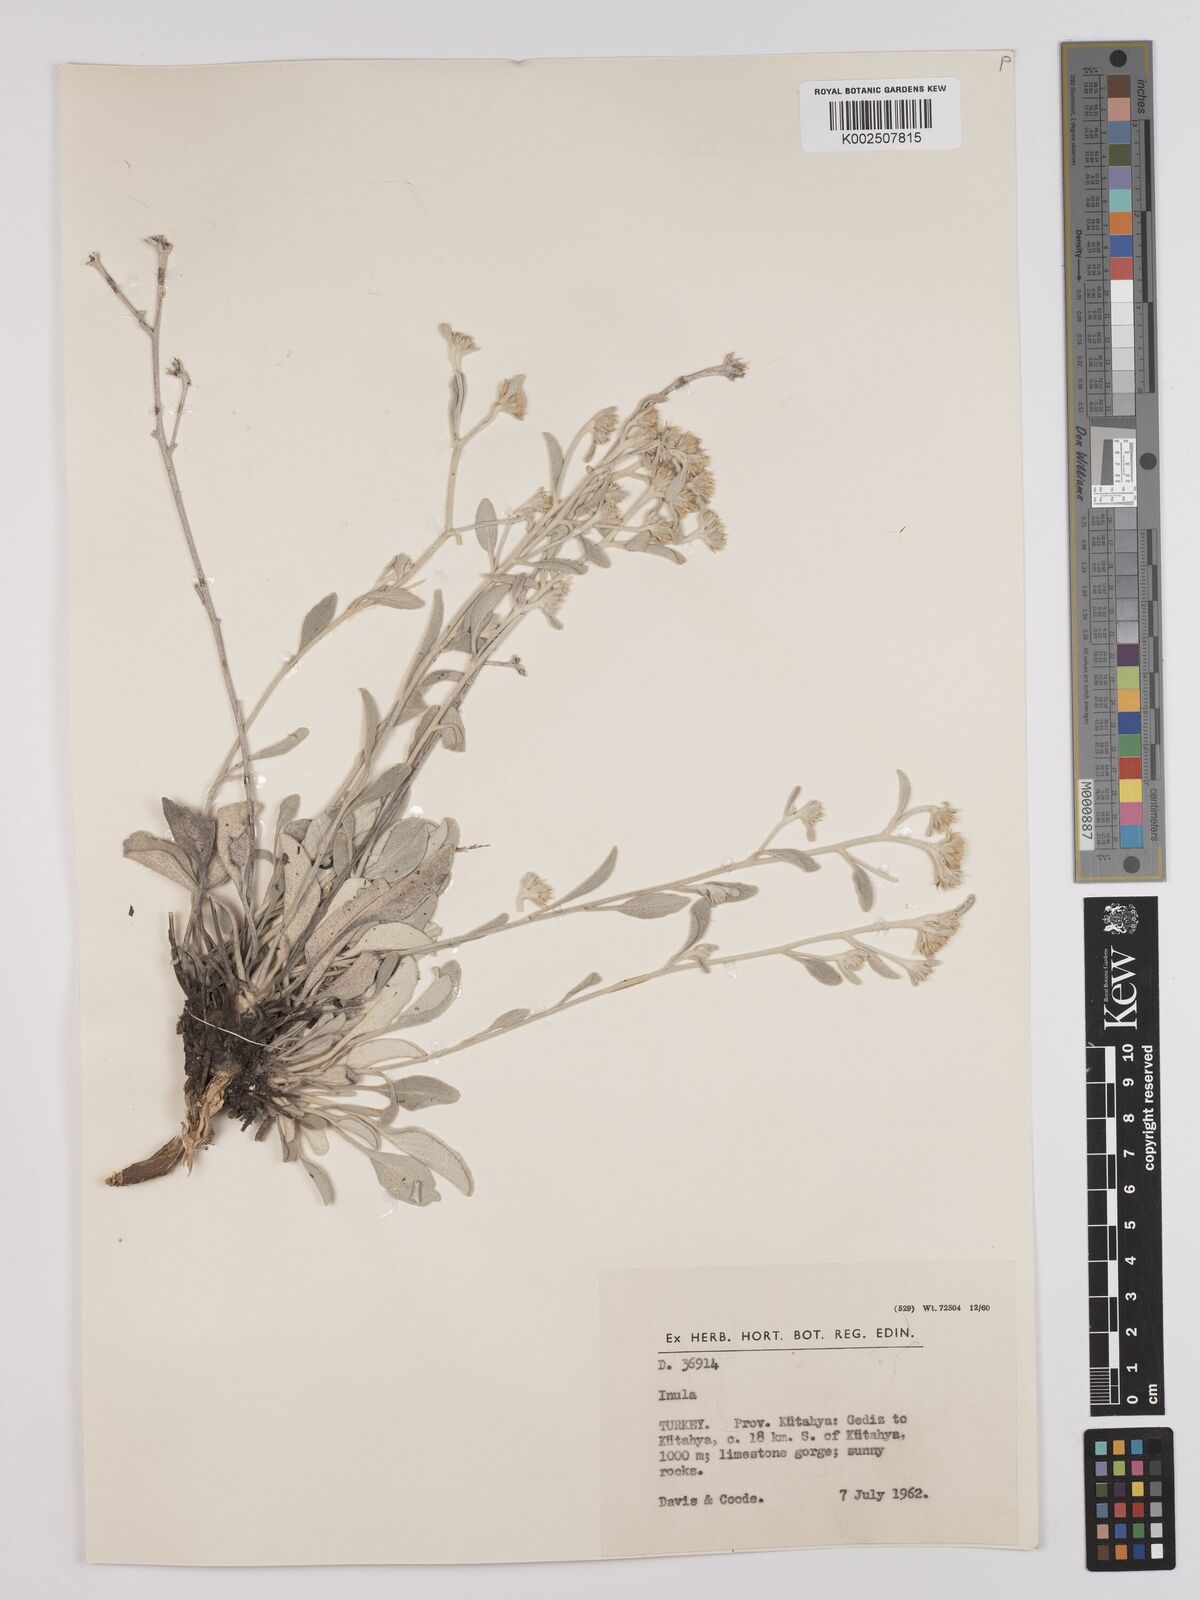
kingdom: Plantae
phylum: Tracheophyta
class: Magnoliopsida
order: Asterales
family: Asteraceae
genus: Pentanema
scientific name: Pentanema verbascifolium
